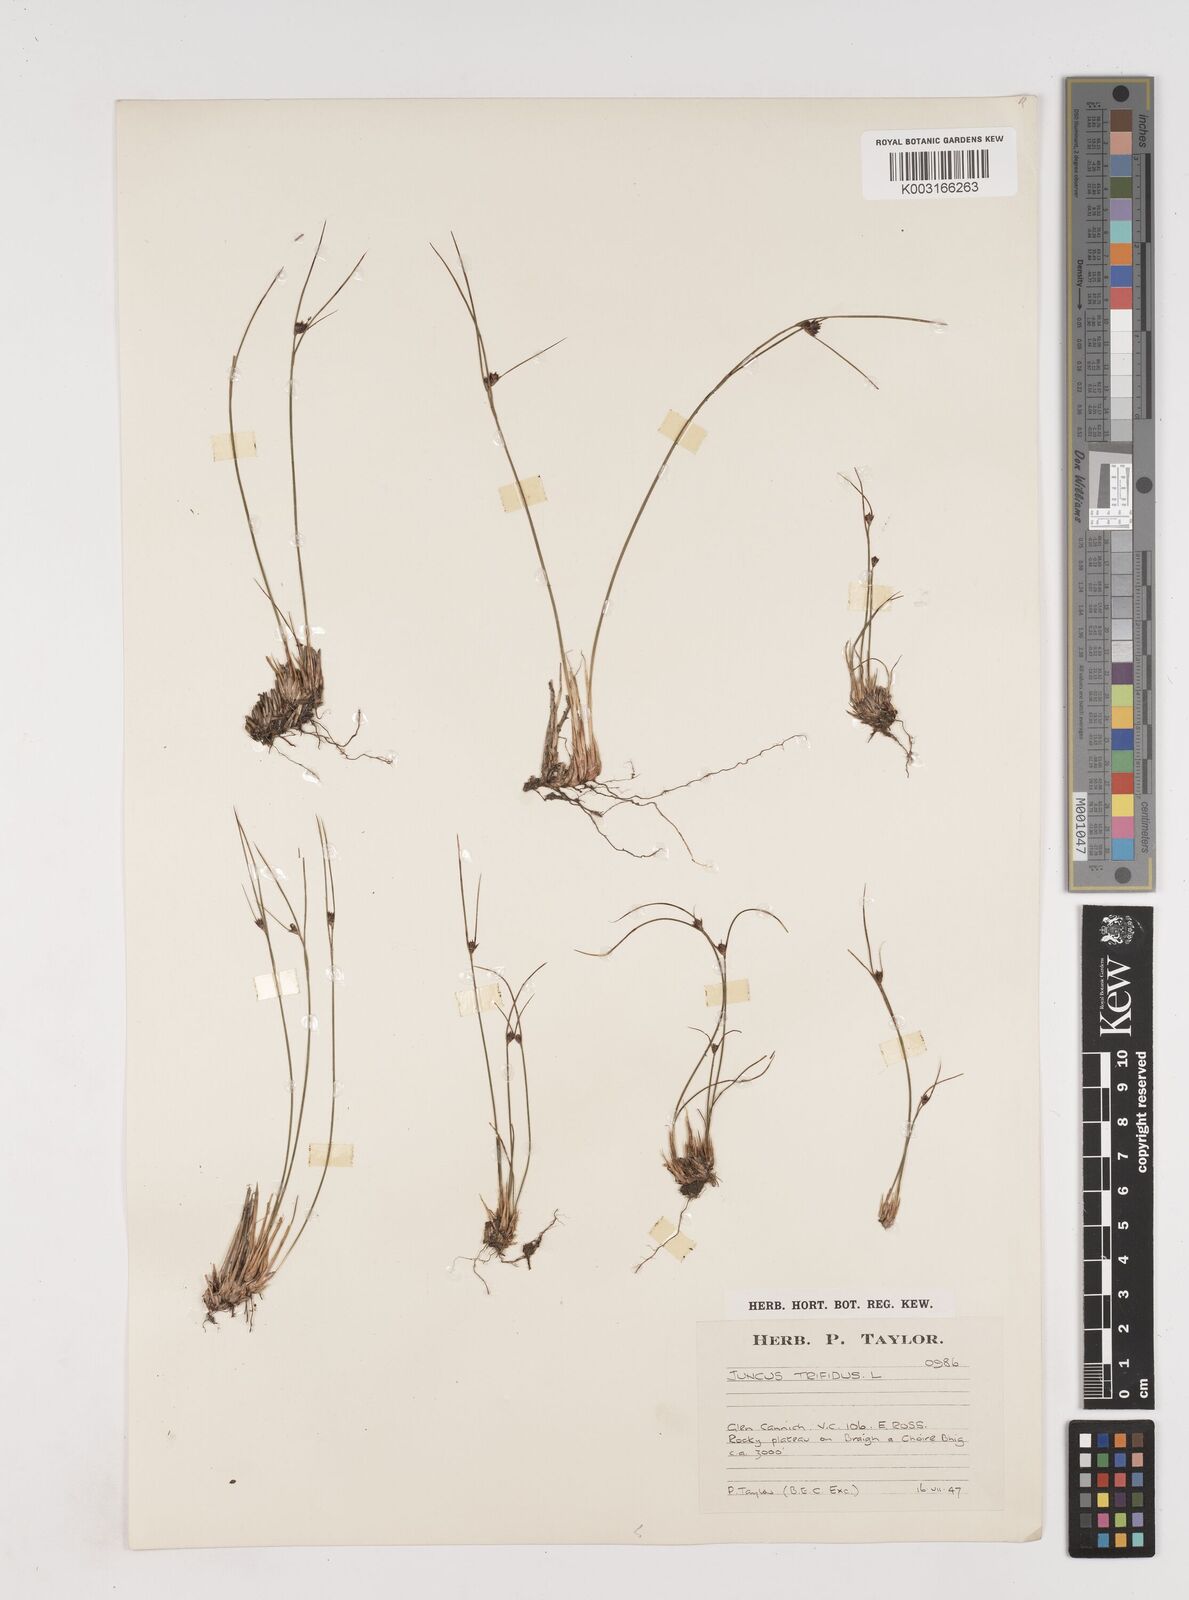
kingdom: Plantae
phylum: Tracheophyta
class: Liliopsida
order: Poales
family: Juncaceae
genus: Oreojuncus
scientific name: Oreojuncus trifidus
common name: Highland rush
